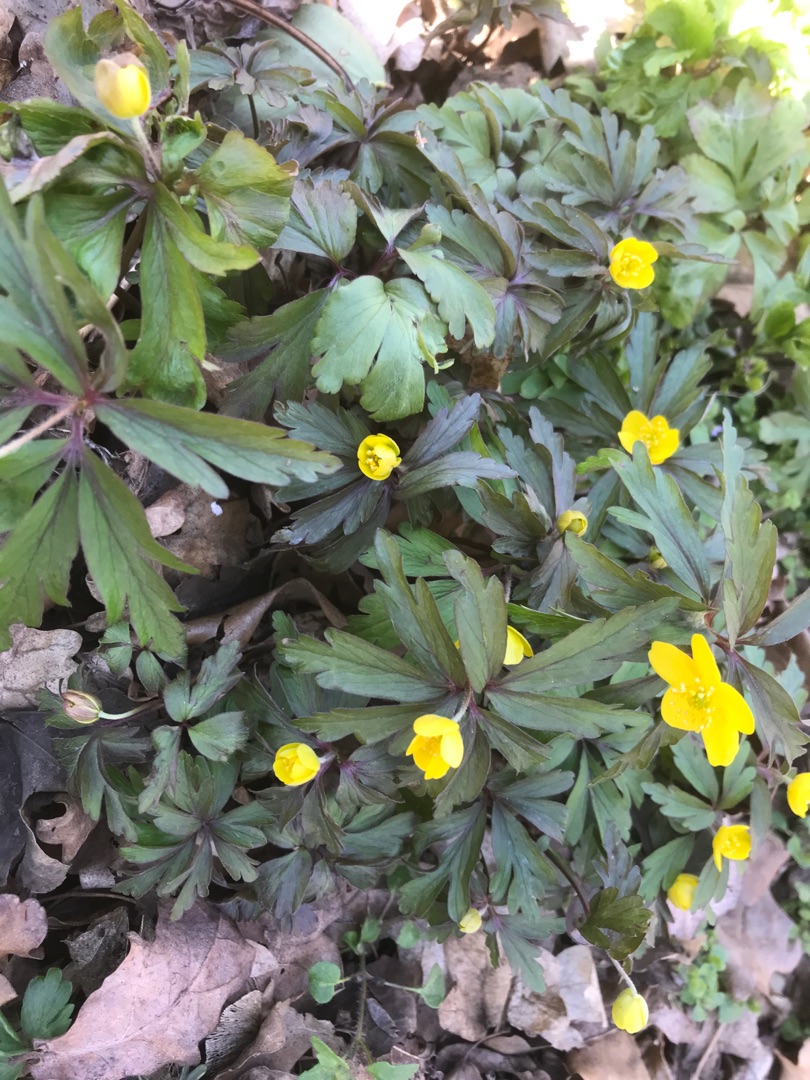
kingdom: Plantae
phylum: Tracheophyta
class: Magnoliopsida
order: Ranunculales
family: Ranunculaceae
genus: Anemone
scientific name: Anemone ranunculoides
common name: Gul anemone
